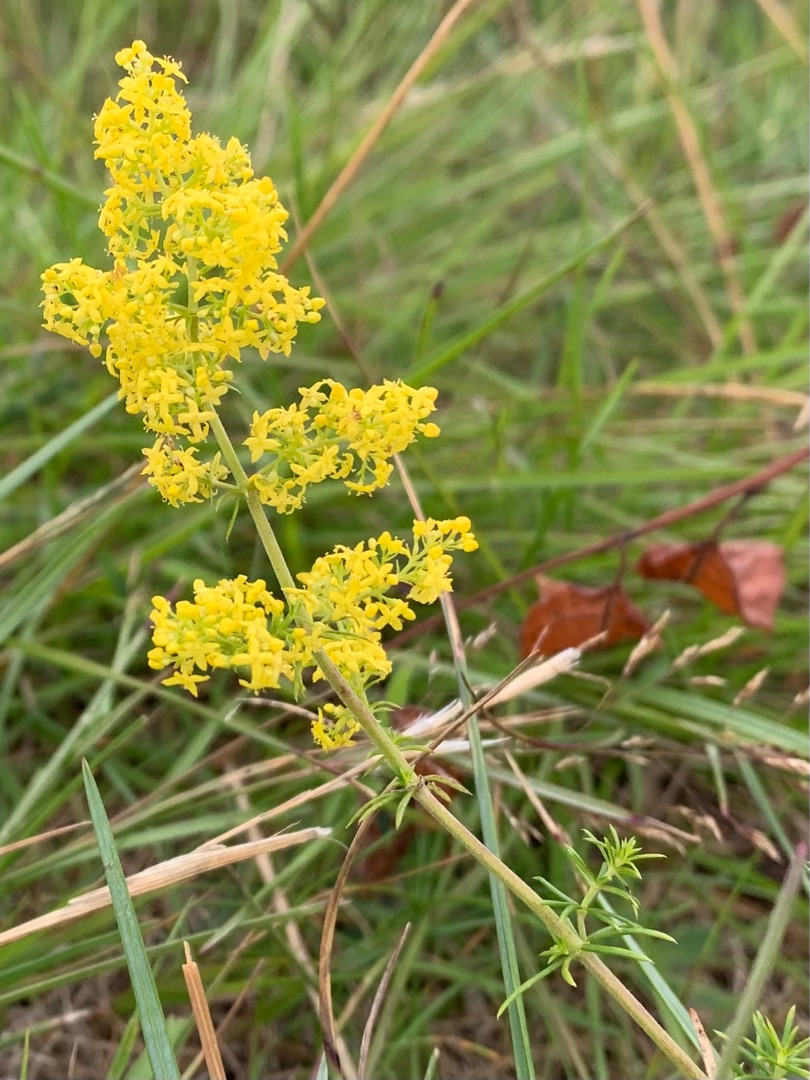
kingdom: Plantae
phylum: Tracheophyta
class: Magnoliopsida
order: Gentianales
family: Rubiaceae
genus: Galium
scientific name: Galium verum
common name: Gul snerre
